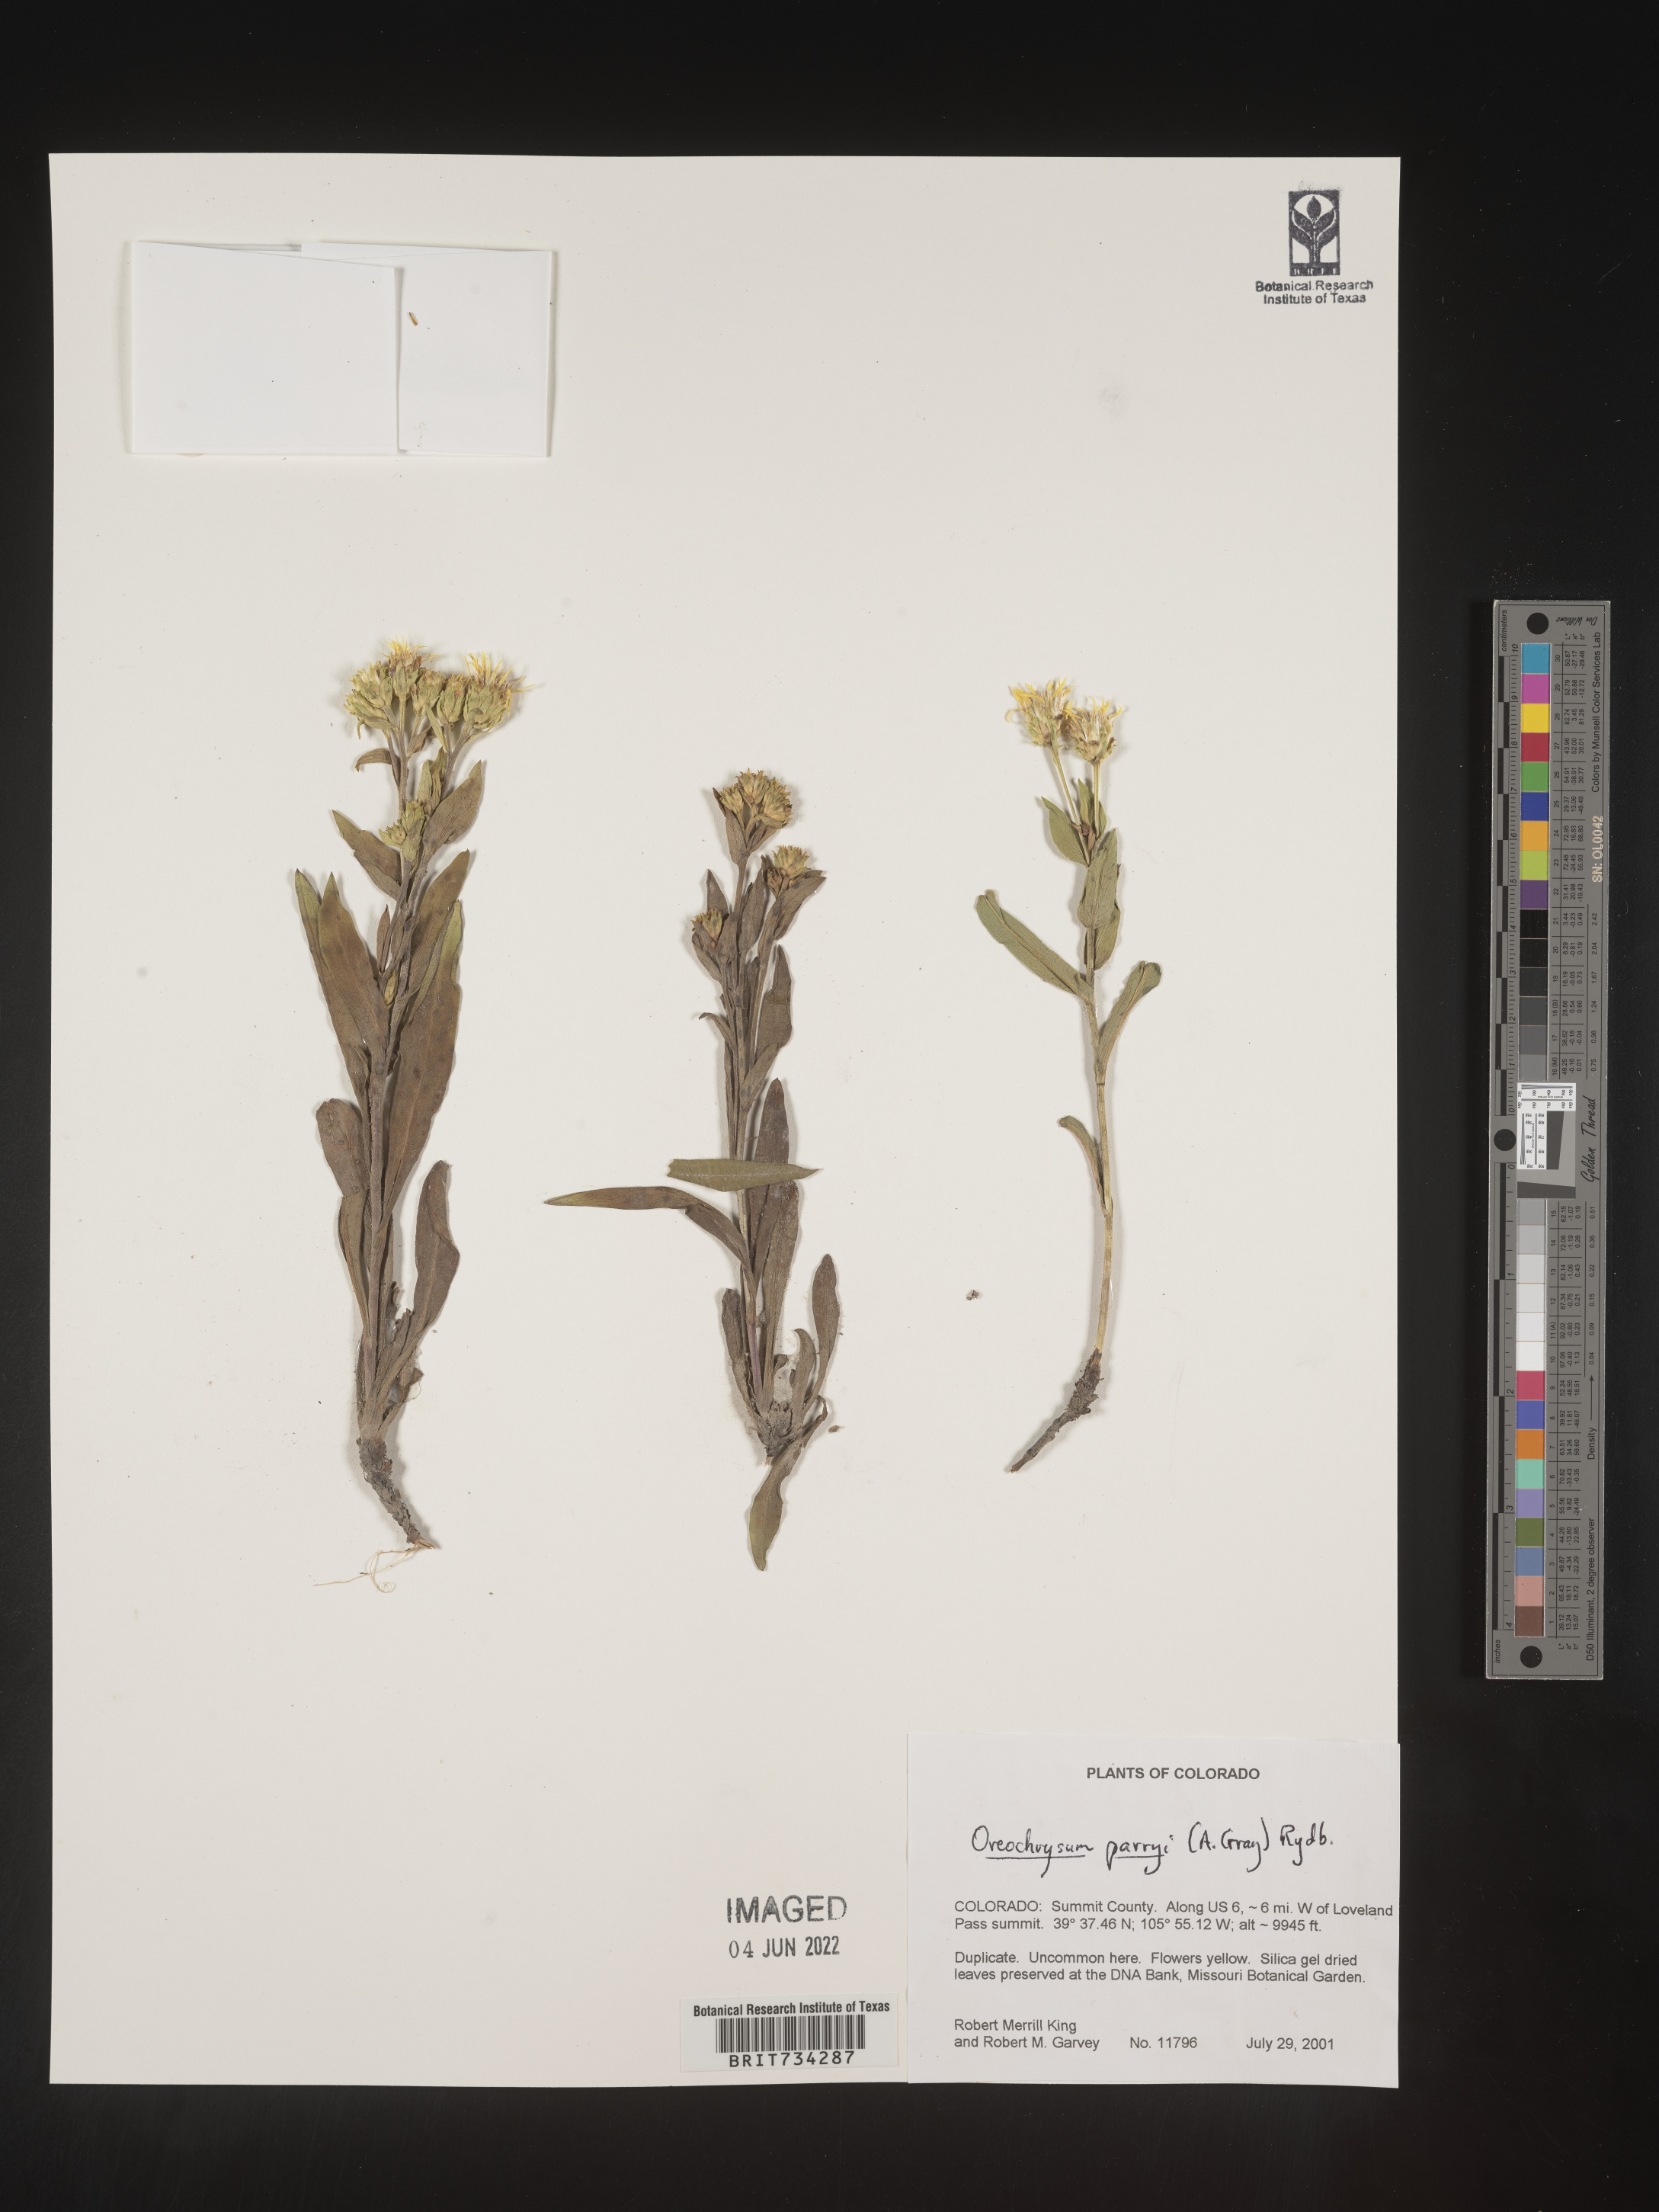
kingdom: Plantae
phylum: Tracheophyta
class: Magnoliopsida
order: Asterales
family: Asteraceae
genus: Oreochrysum
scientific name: Oreochrysum parryi
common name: Parry's goldenweed
